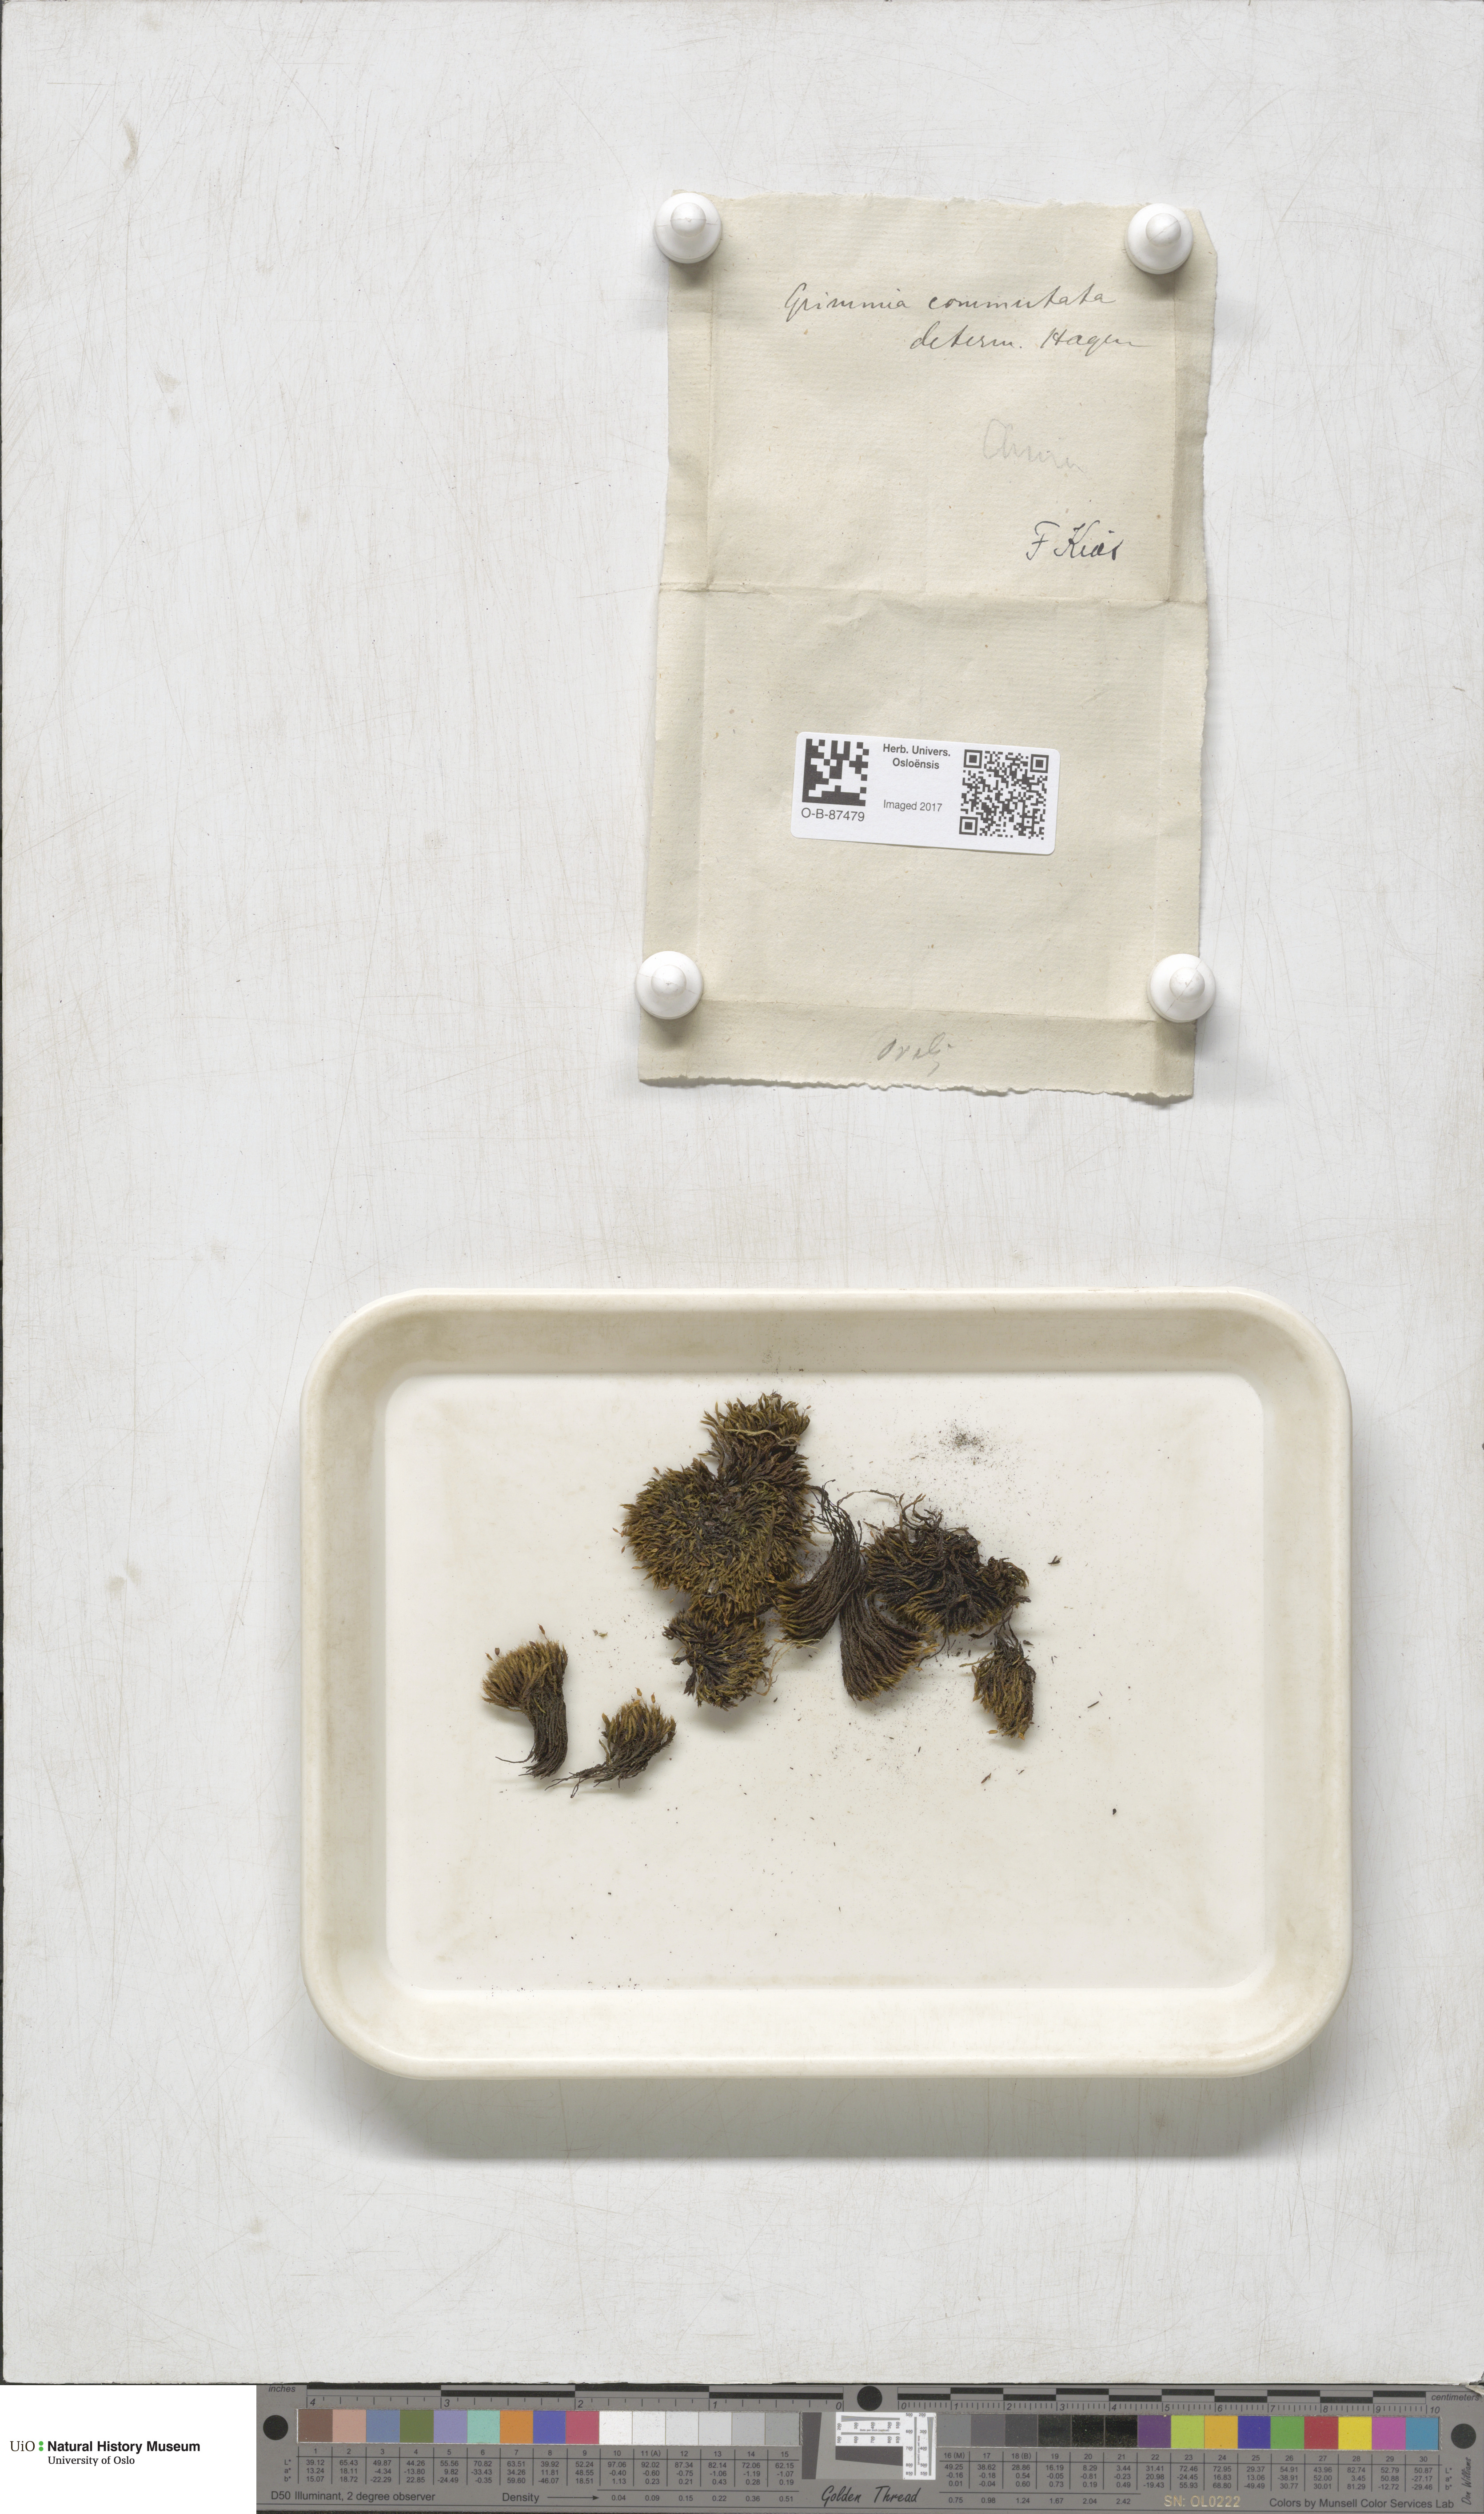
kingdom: Plantae
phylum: Bryophyta
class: Bryopsida
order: Grimmiales
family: Grimmiaceae
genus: Grimmia
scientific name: Grimmia ovalis
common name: Oval grimmia
